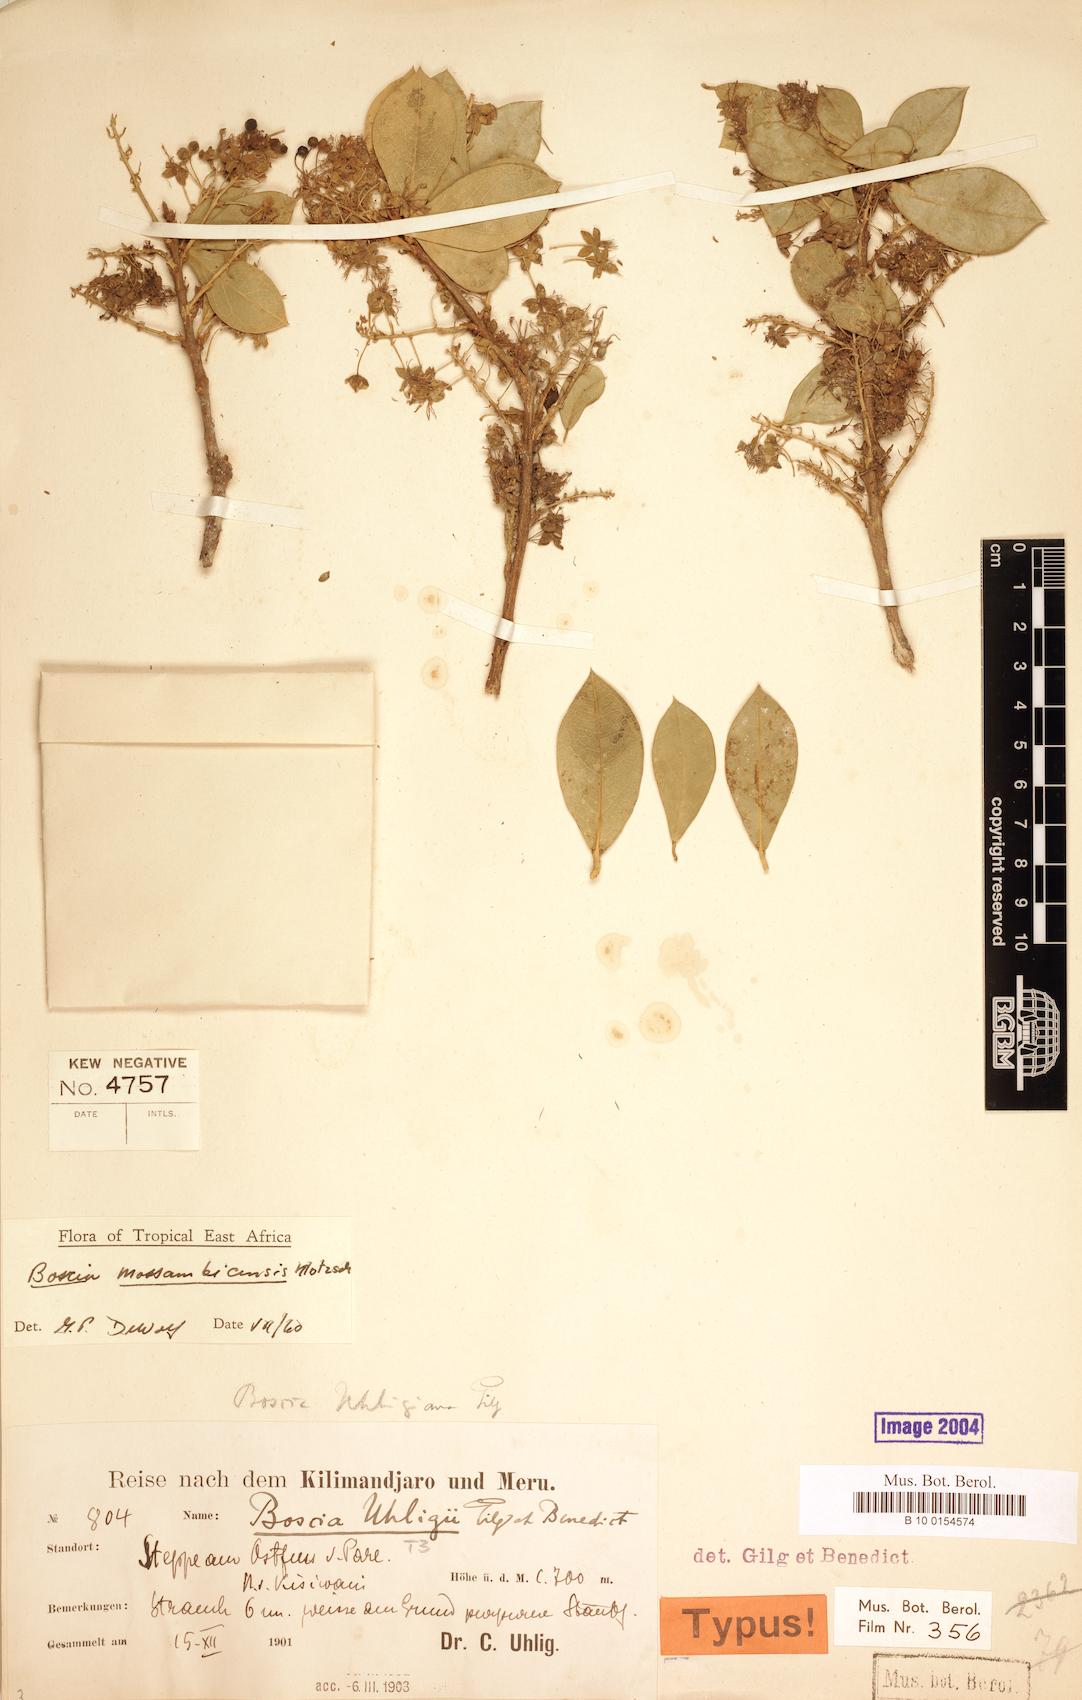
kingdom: Plantae
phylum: Tracheophyta
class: Magnoliopsida
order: Brassicales
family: Capparaceae
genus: Boscia
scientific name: Boscia mossambicensis
